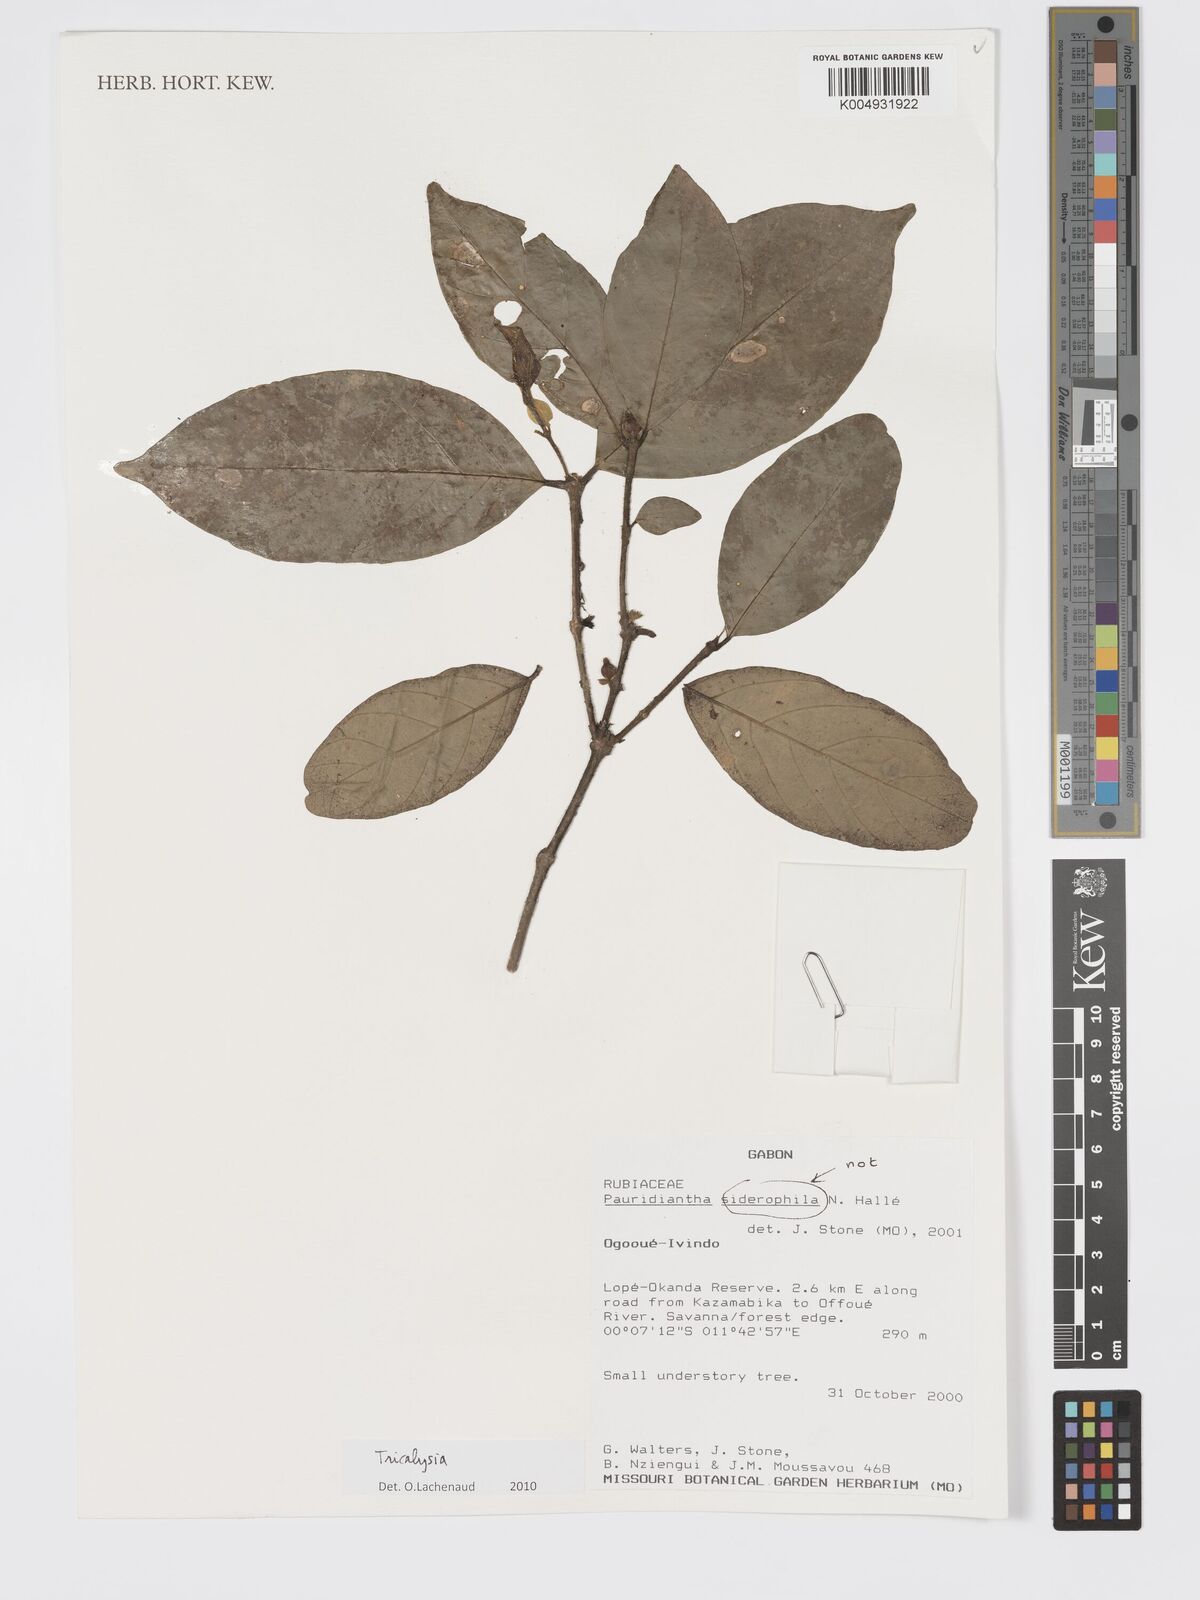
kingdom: Plantae
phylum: Tracheophyta
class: Magnoliopsida
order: Gentianales
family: Rubiaceae
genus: Tricalysia
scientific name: Tricalysia
